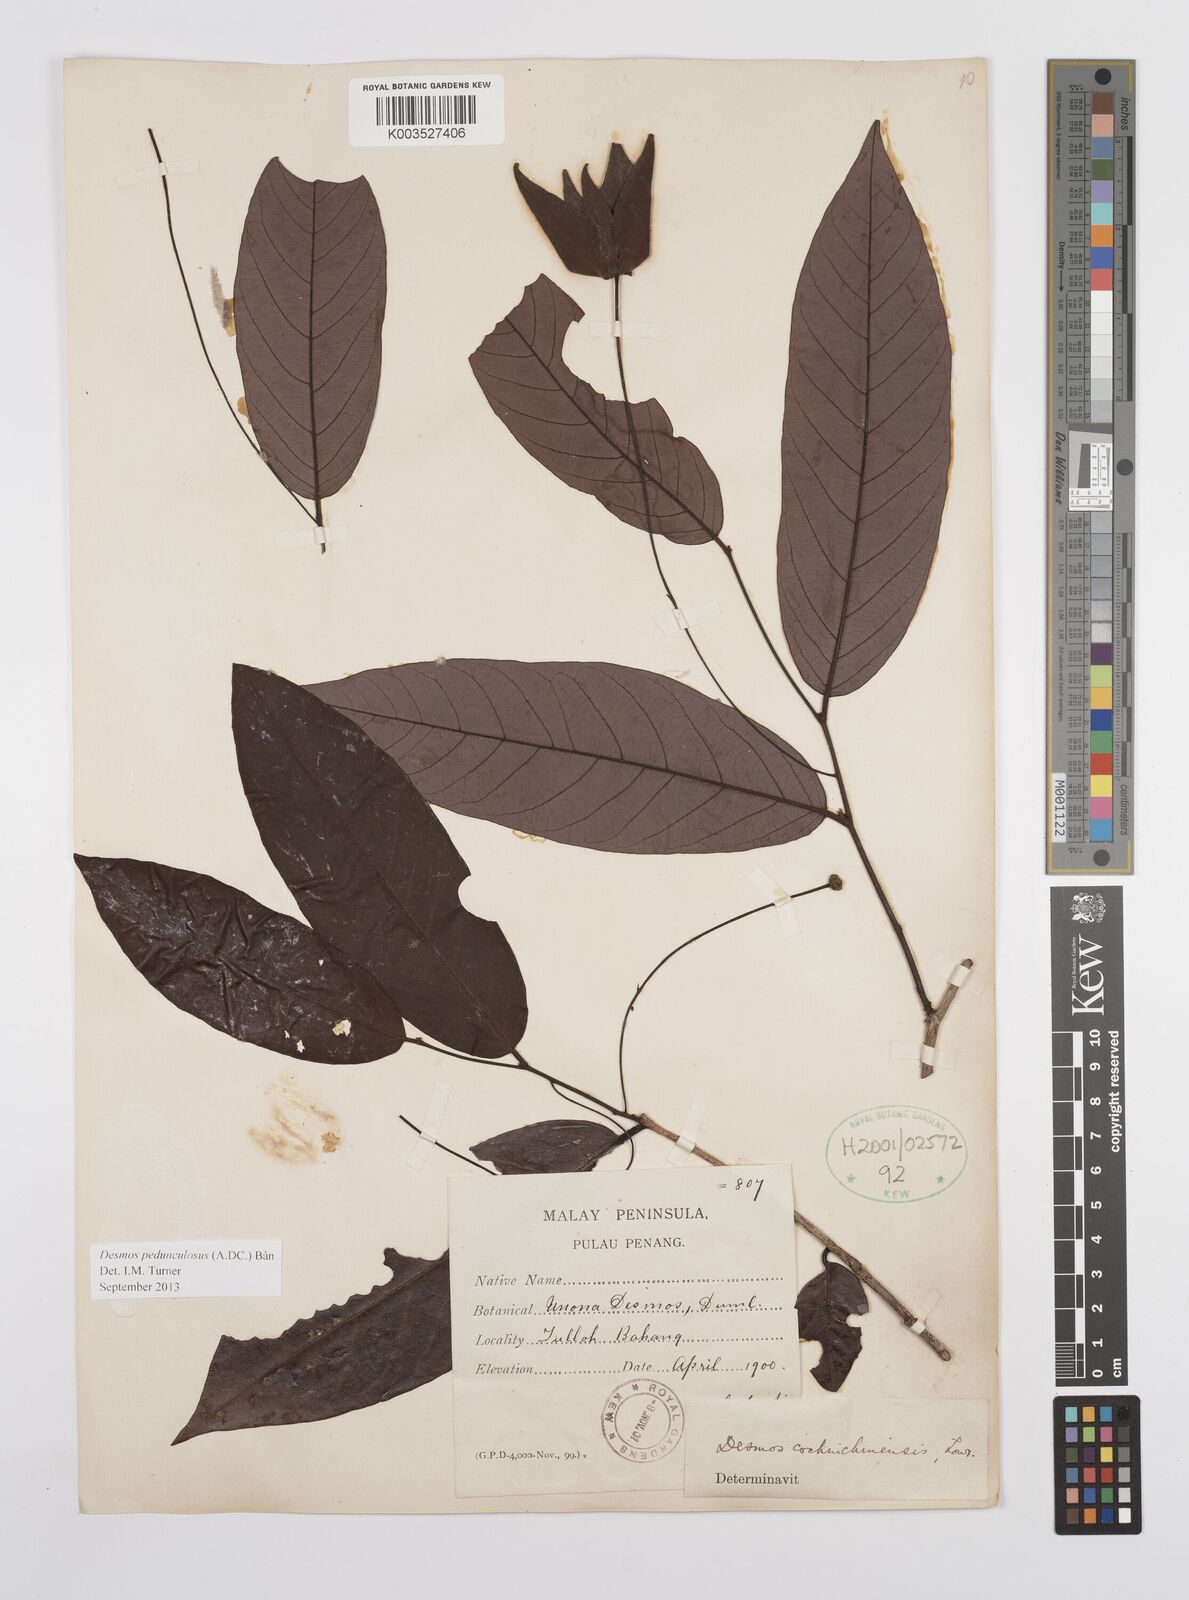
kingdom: Plantae
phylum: Tracheophyta
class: Magnoliopsida
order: Magnoliales
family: Annonaceae
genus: Desmos
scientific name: Desmos cochinchinensis
